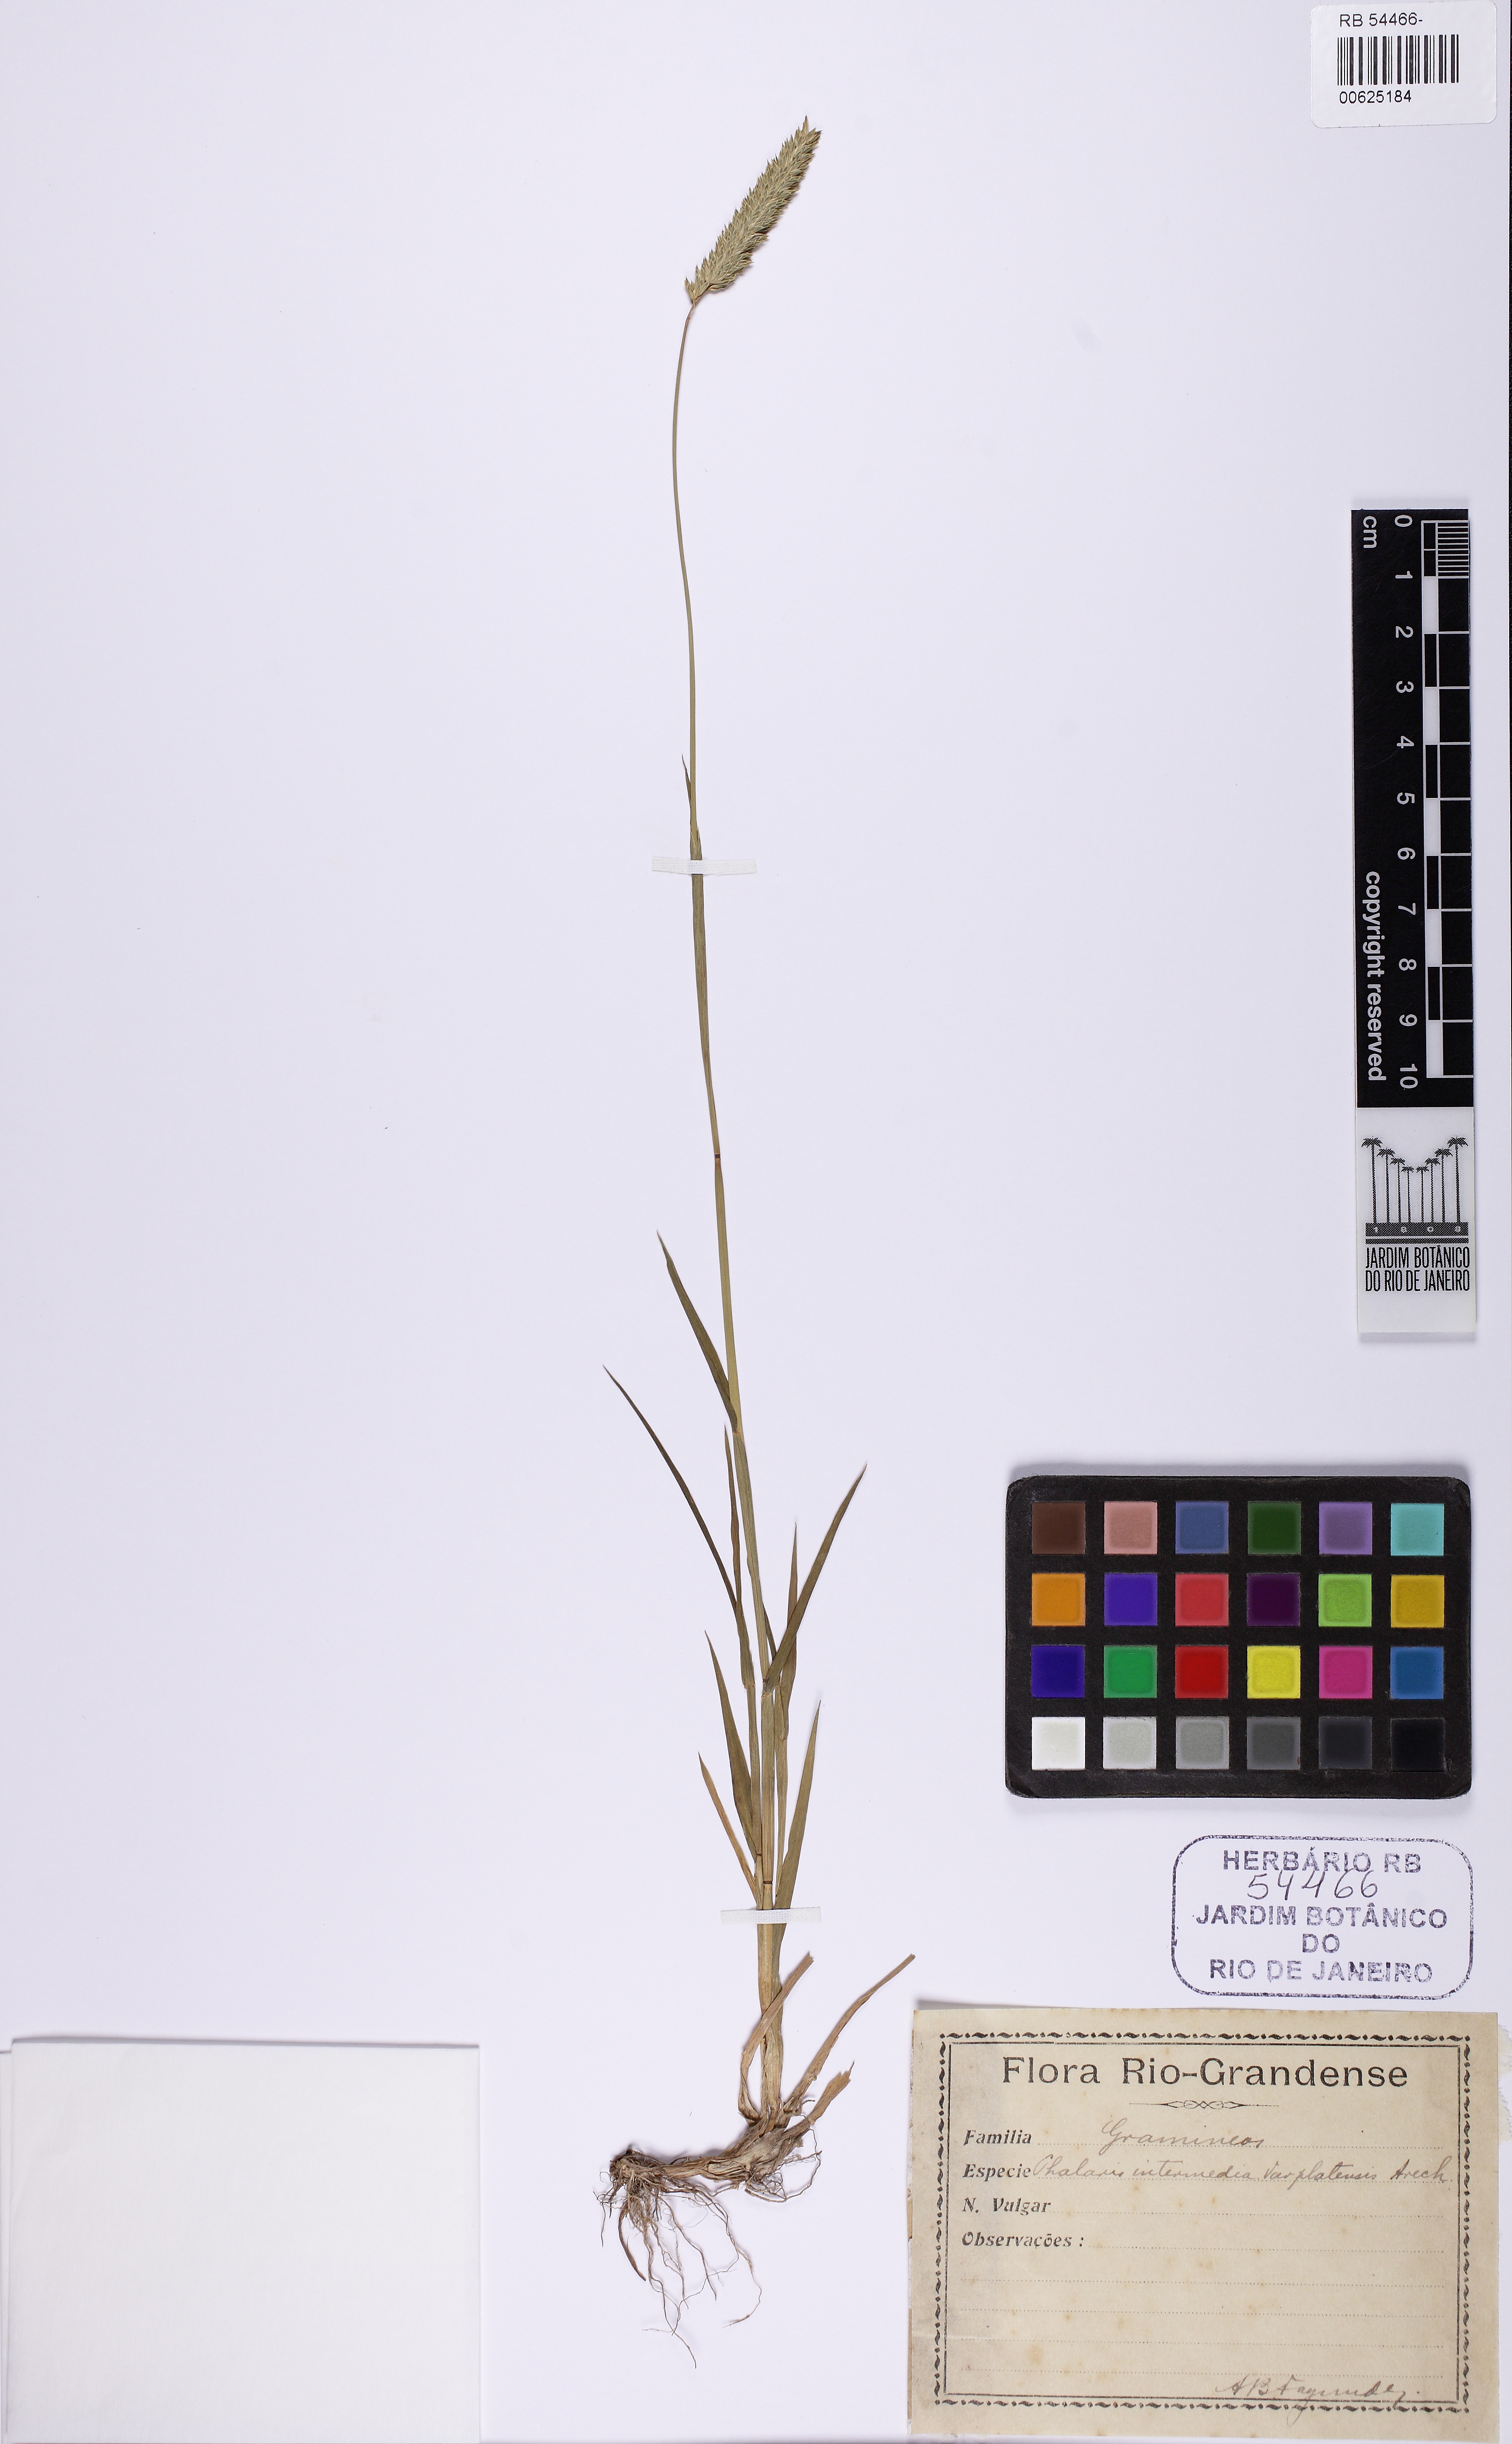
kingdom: Plantae
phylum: Tracheophyta
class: Liliopsida
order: Poales
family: Poaceae
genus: Phalaris
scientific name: Phalaris caroliniana
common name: May grass
